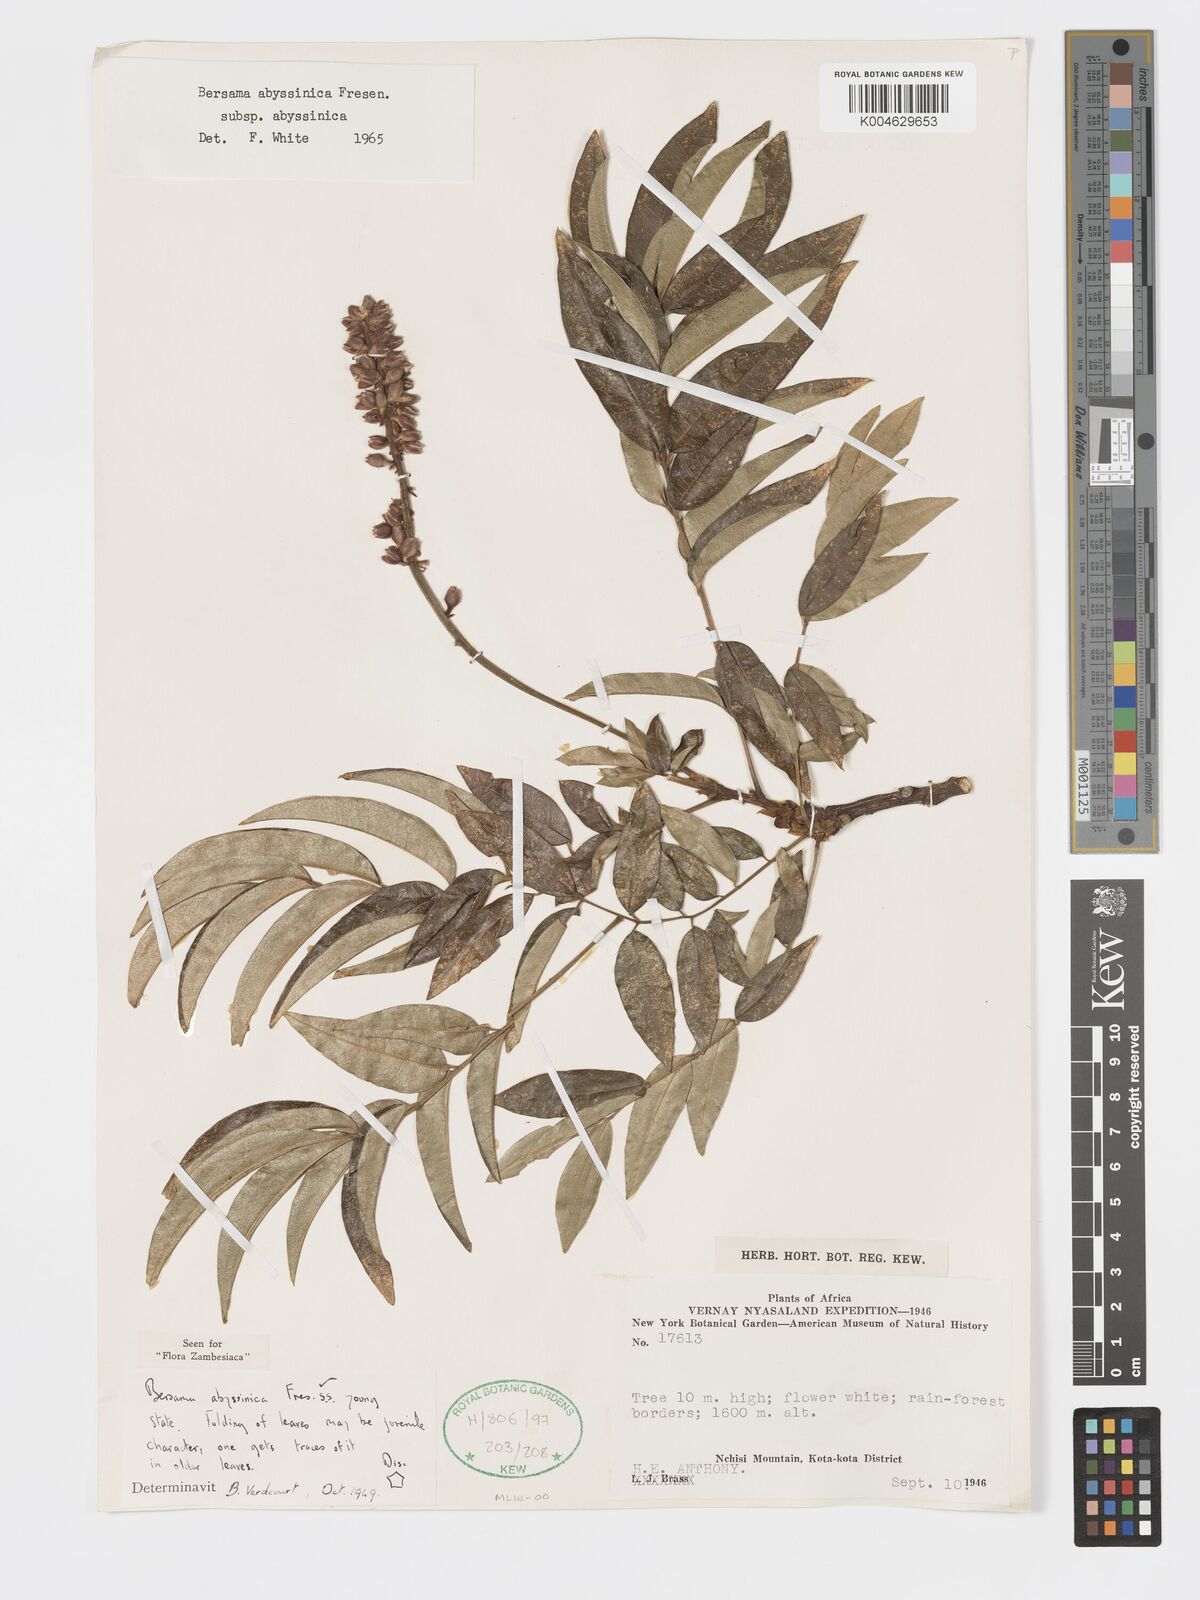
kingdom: Plantae
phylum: Tracheophyta
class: Magnoliopsida
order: Geraniales
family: Francoaceae
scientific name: Francoaceae
